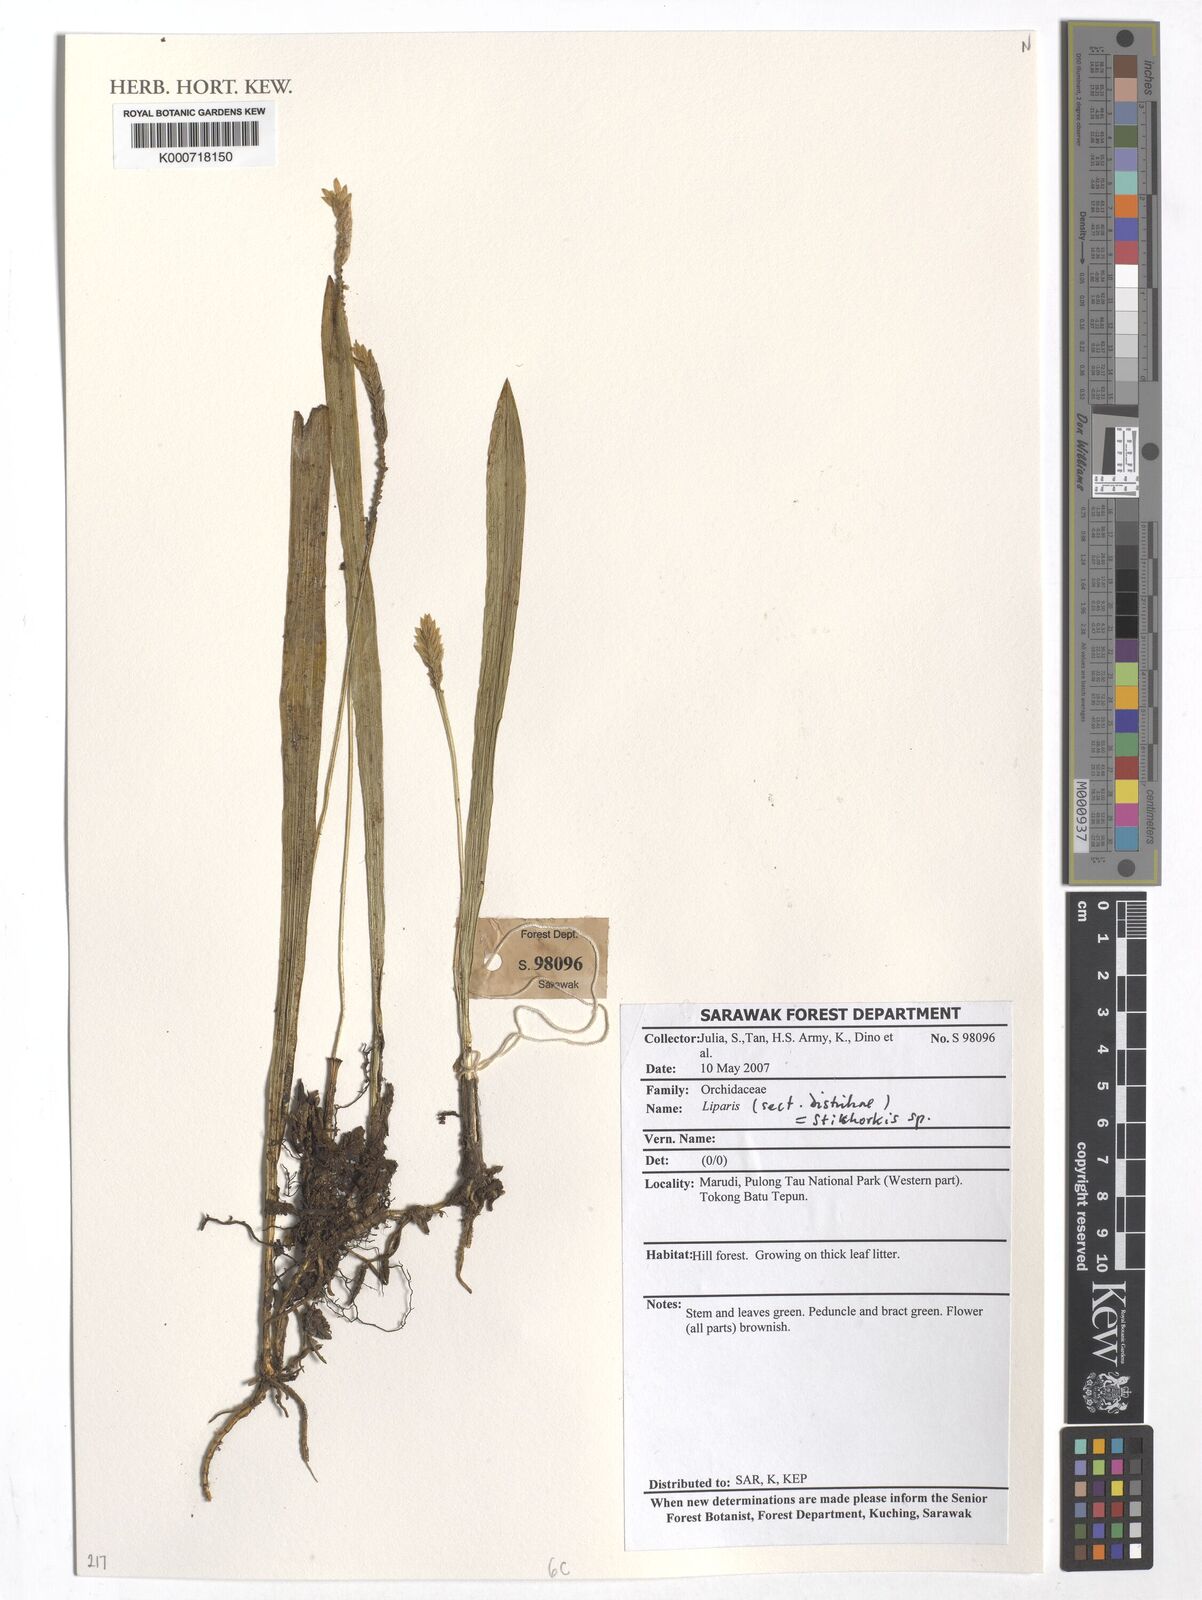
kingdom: Plantae
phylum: Tracheophyta
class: Liliopsida
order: Asparagales
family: Orchidaceae
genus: Liparis
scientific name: Liparis
